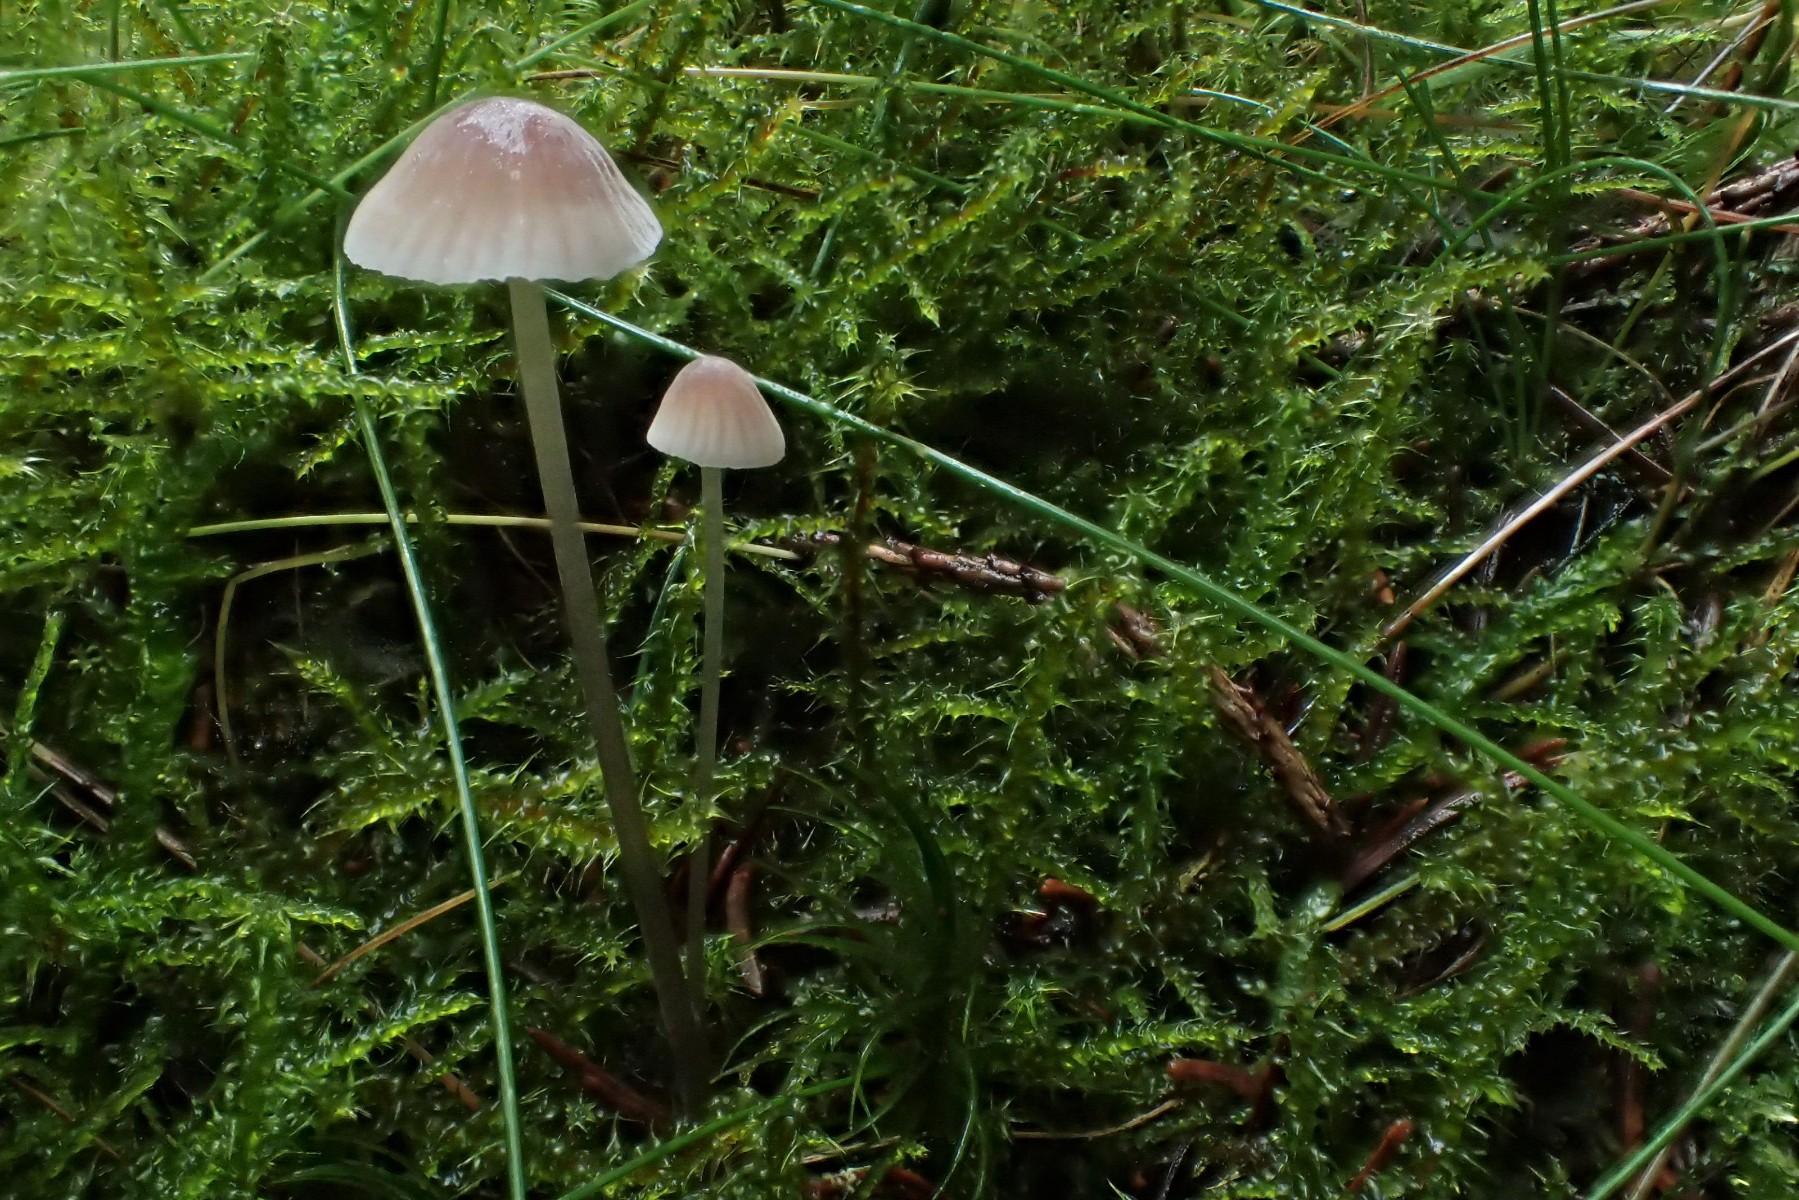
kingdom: Fungi
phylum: Basidiomycota
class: Agaricomycetes
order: Agaricales
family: Mycenaceae
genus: Mycena
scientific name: Mycena metata
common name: rødlig huesvamp
